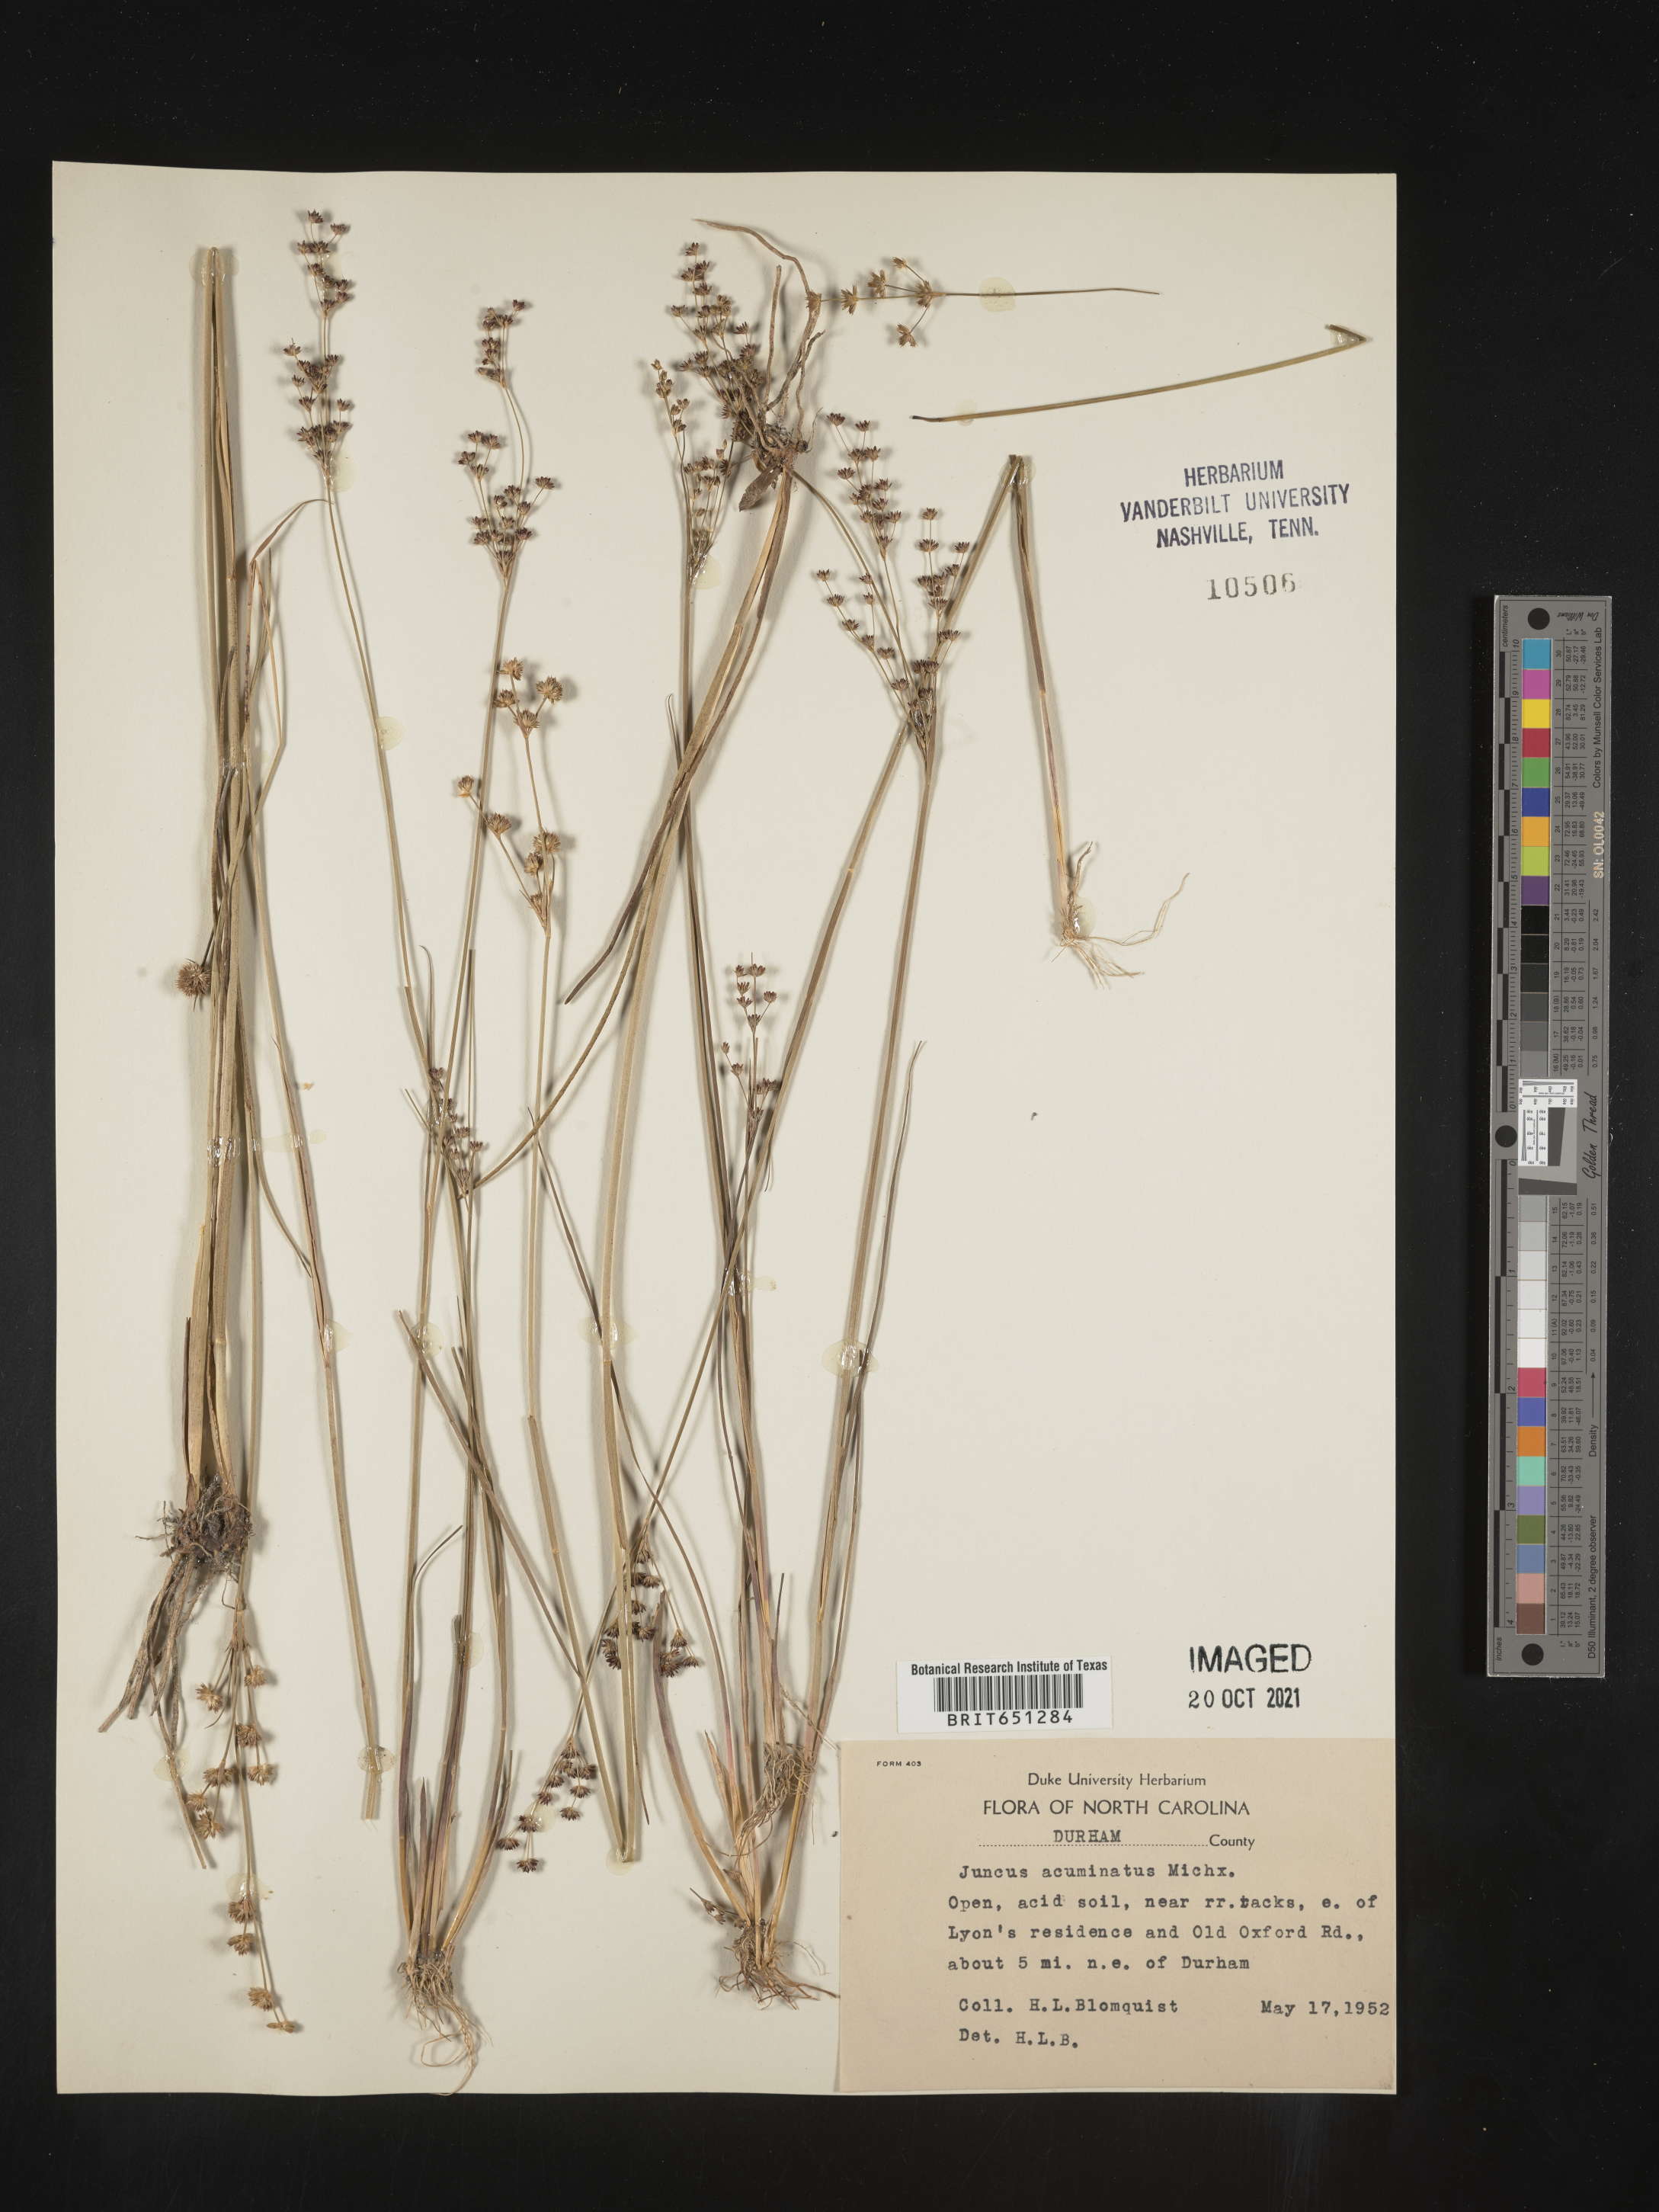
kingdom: Plantae
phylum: Tracheophyta
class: Liliopsida
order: Poales
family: Juncaceae
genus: Juncus
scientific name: Juncus acuminatus
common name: Knotty-leaved rush
